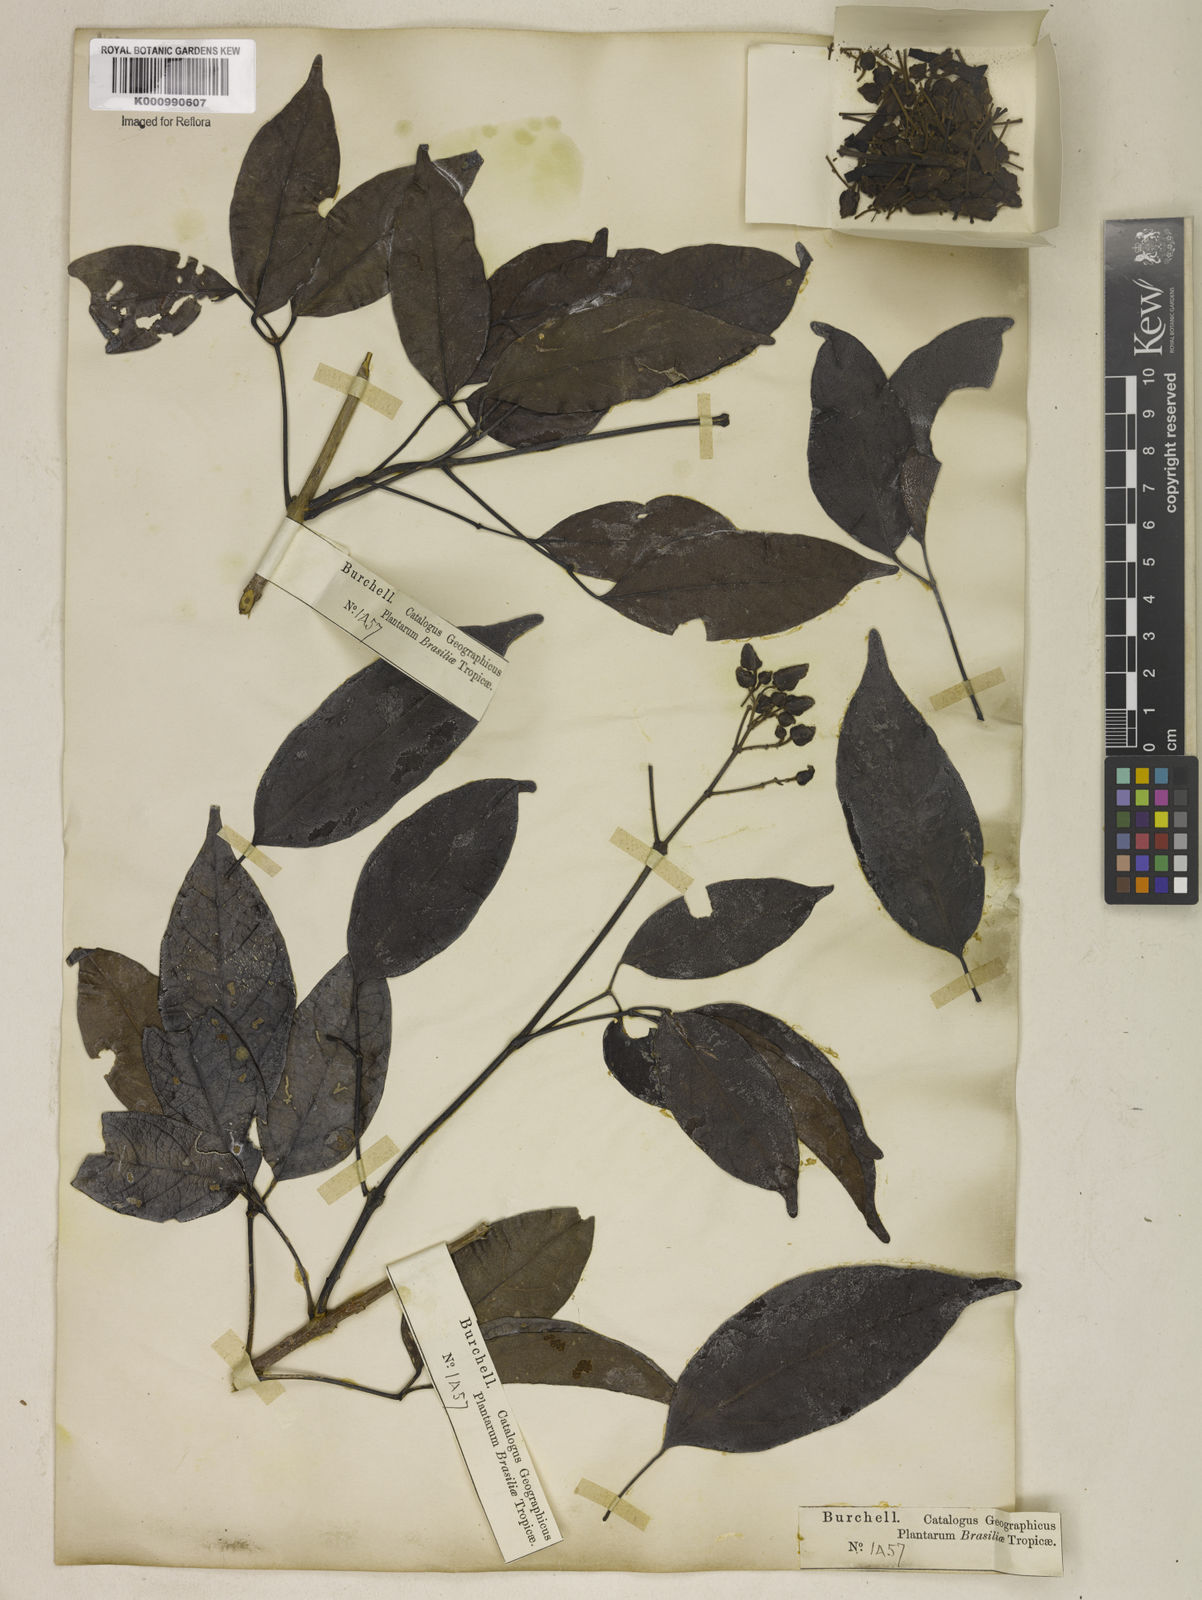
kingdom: Plantae
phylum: Tracheophyta
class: Magnoliopsida
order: Lamiales
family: Bignoniaceae
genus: Fridericia
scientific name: Fridericia speciosa
